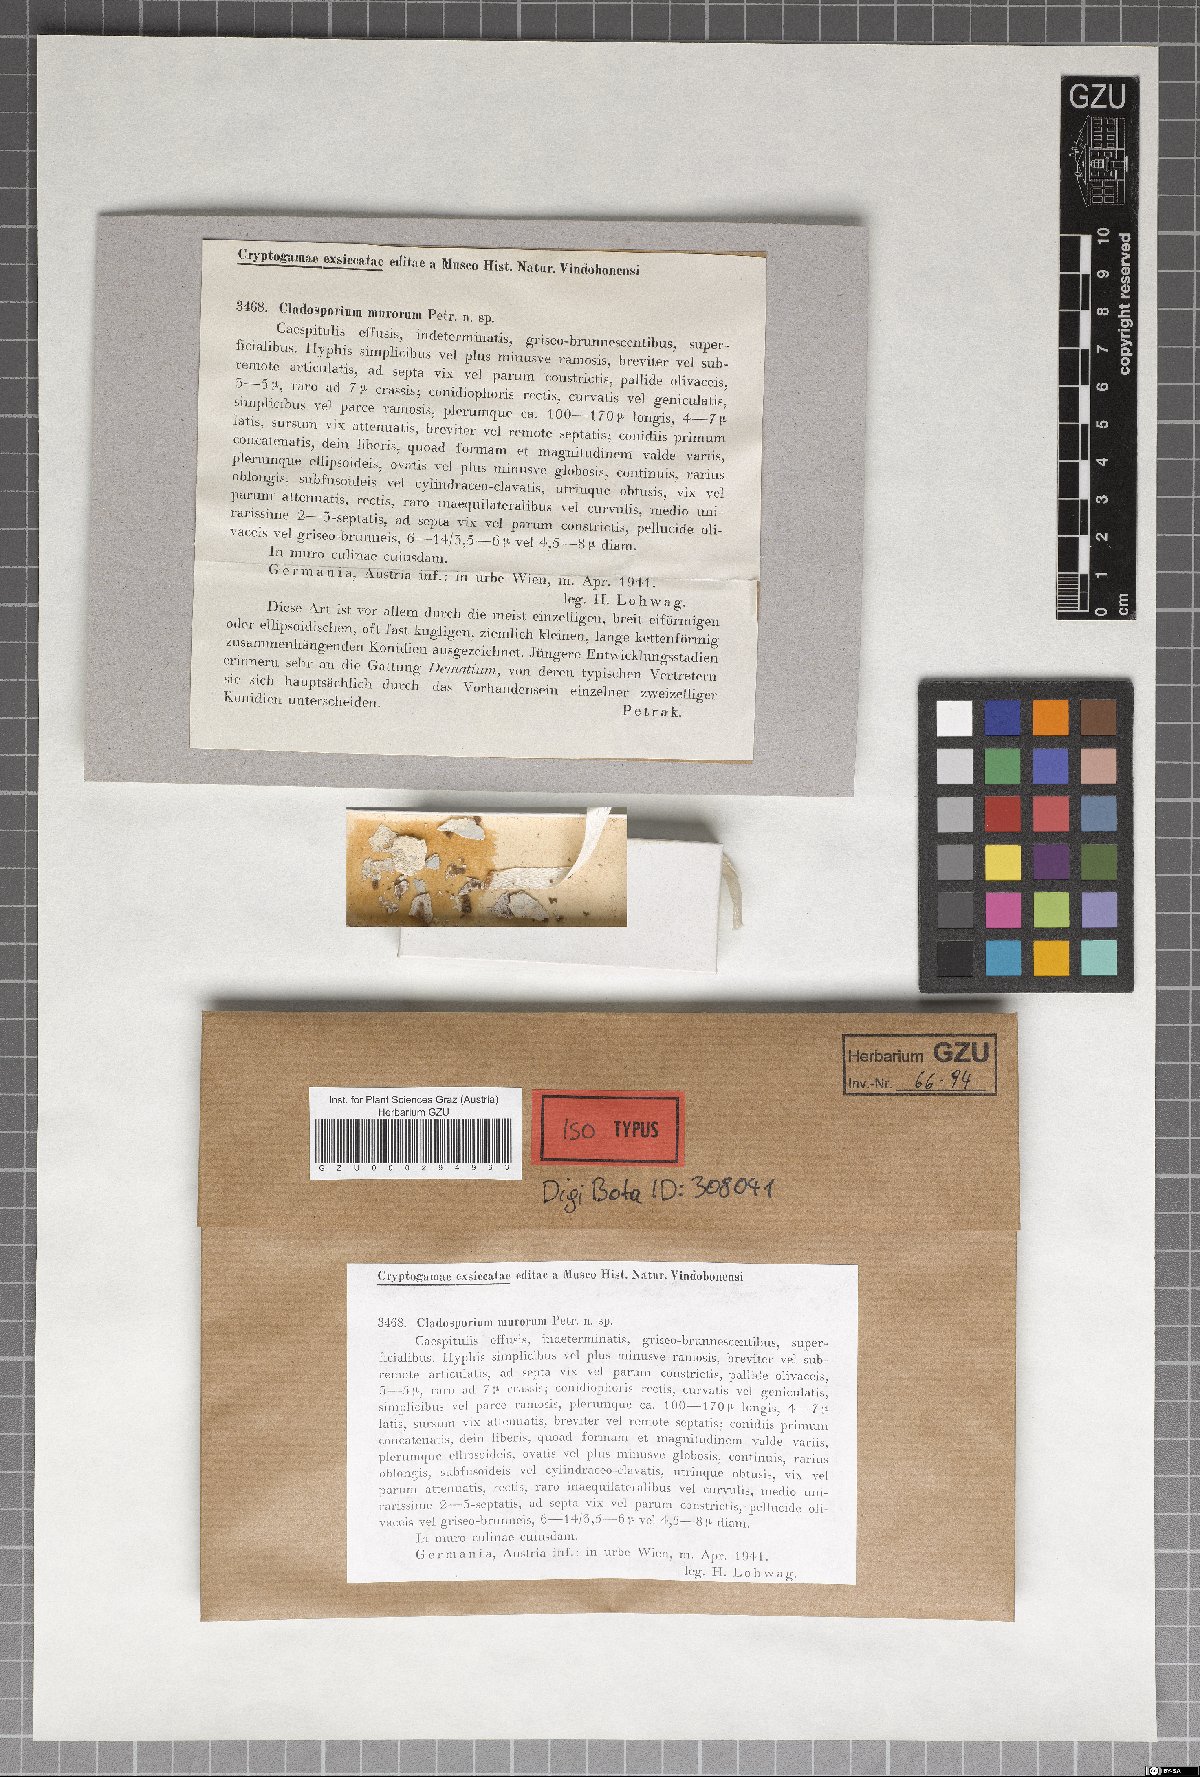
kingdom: Fungi
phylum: Ascomycota
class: Dothideomycetes
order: Capnodiales
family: Cladosporiaceae
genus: Cladosporium
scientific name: Cladosporium murorum
